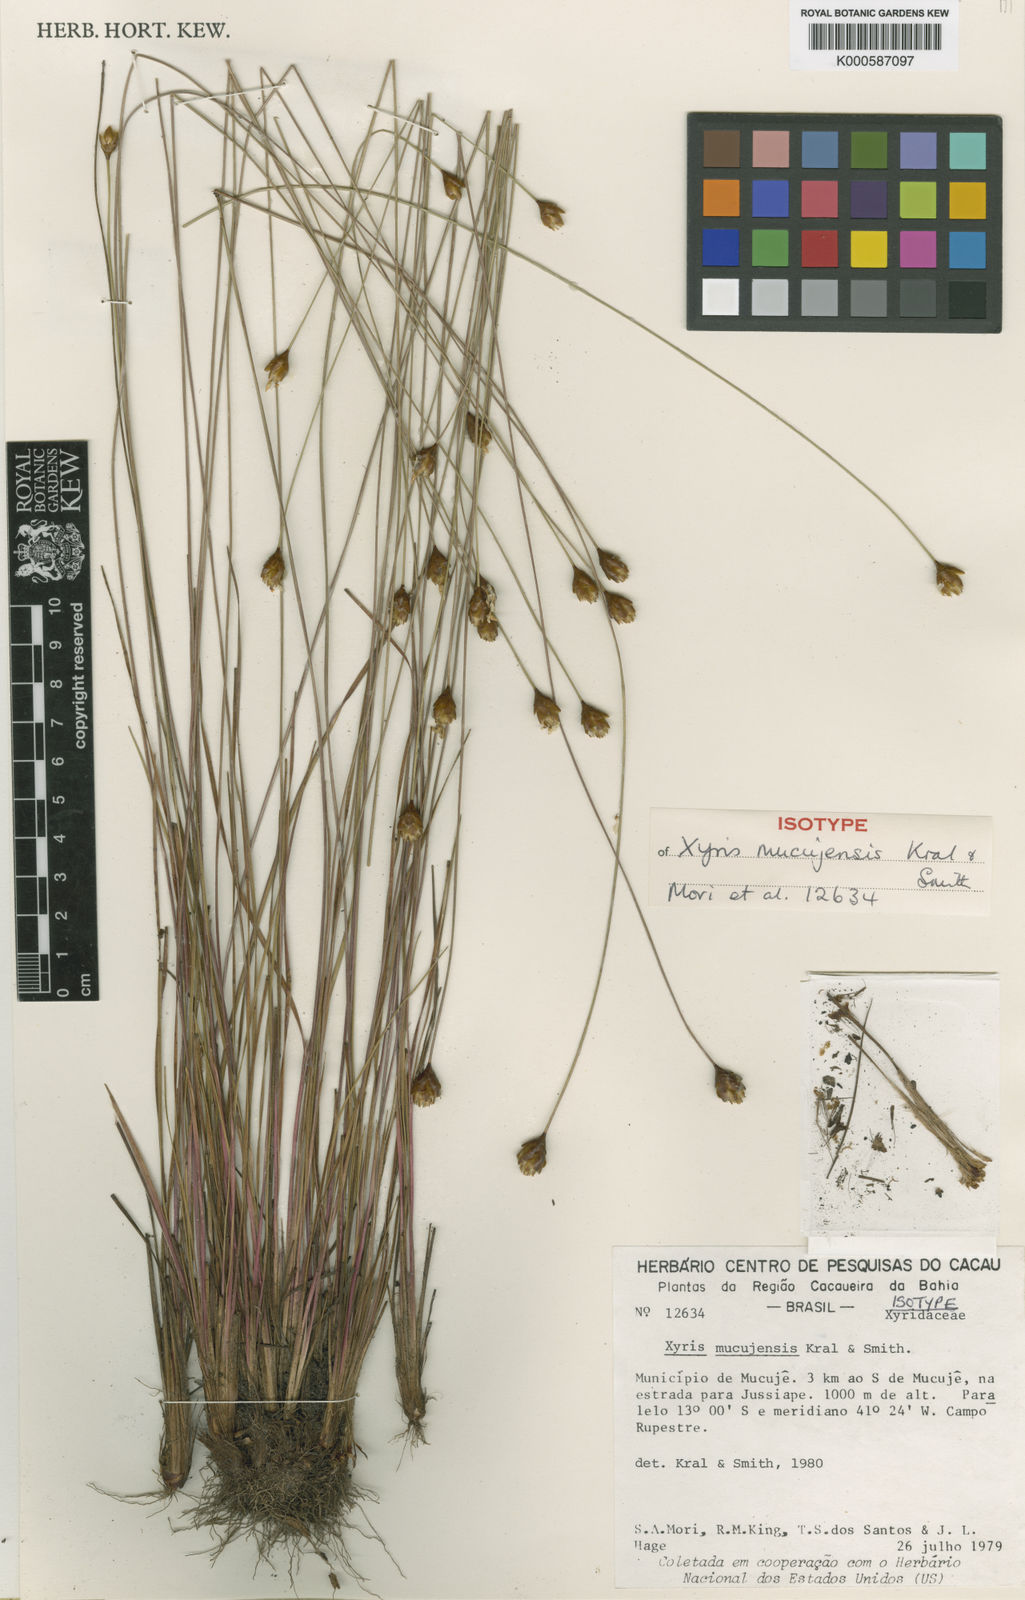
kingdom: Plantae
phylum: Tracheophyta
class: Liliopsida
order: Poales
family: Xyridaceae
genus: Xyris
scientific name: Xyris mucujensis
